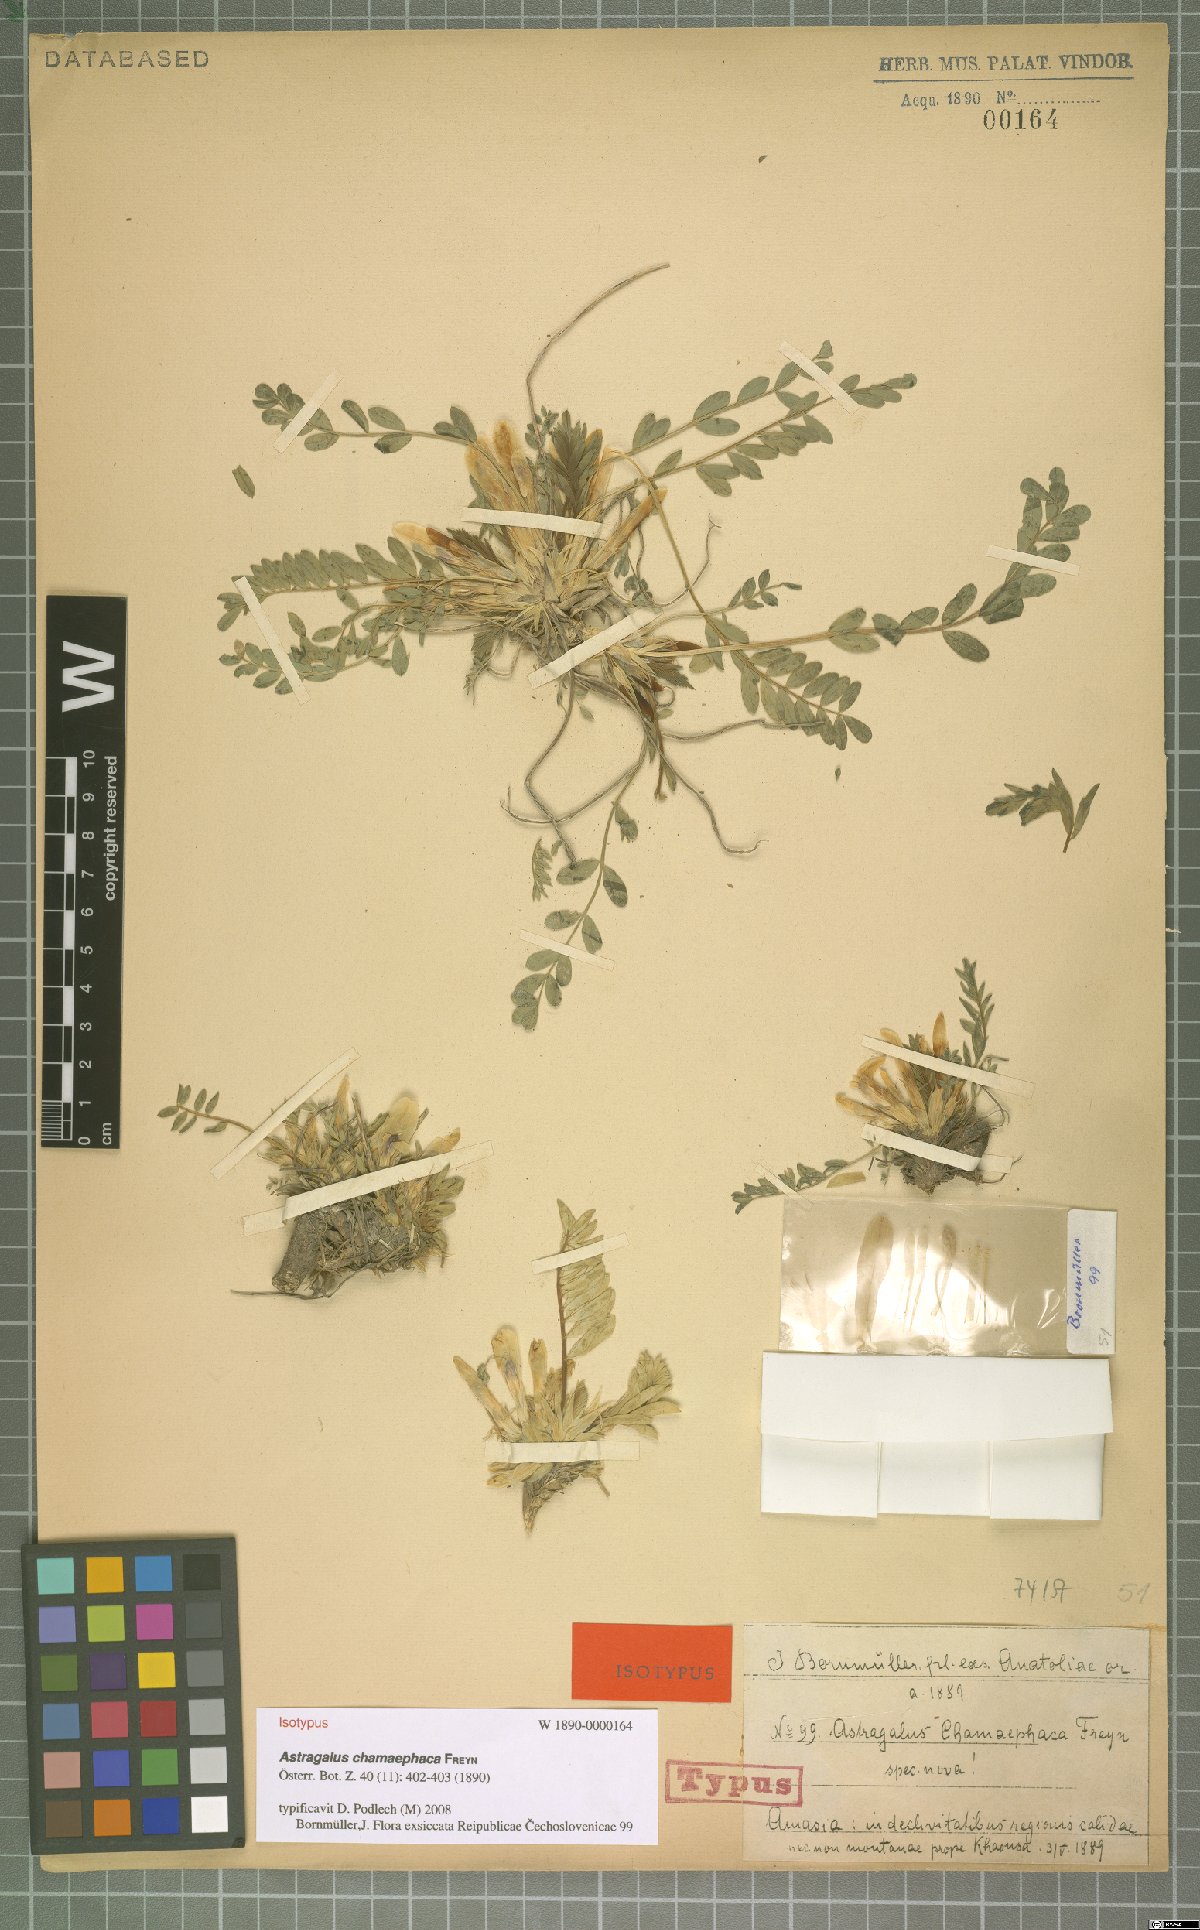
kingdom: Plantae
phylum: Tracheophyta
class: Magnoliopsida
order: Fabales
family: Fabaceae
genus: Astragalus
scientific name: Astragalus chamaephaca
